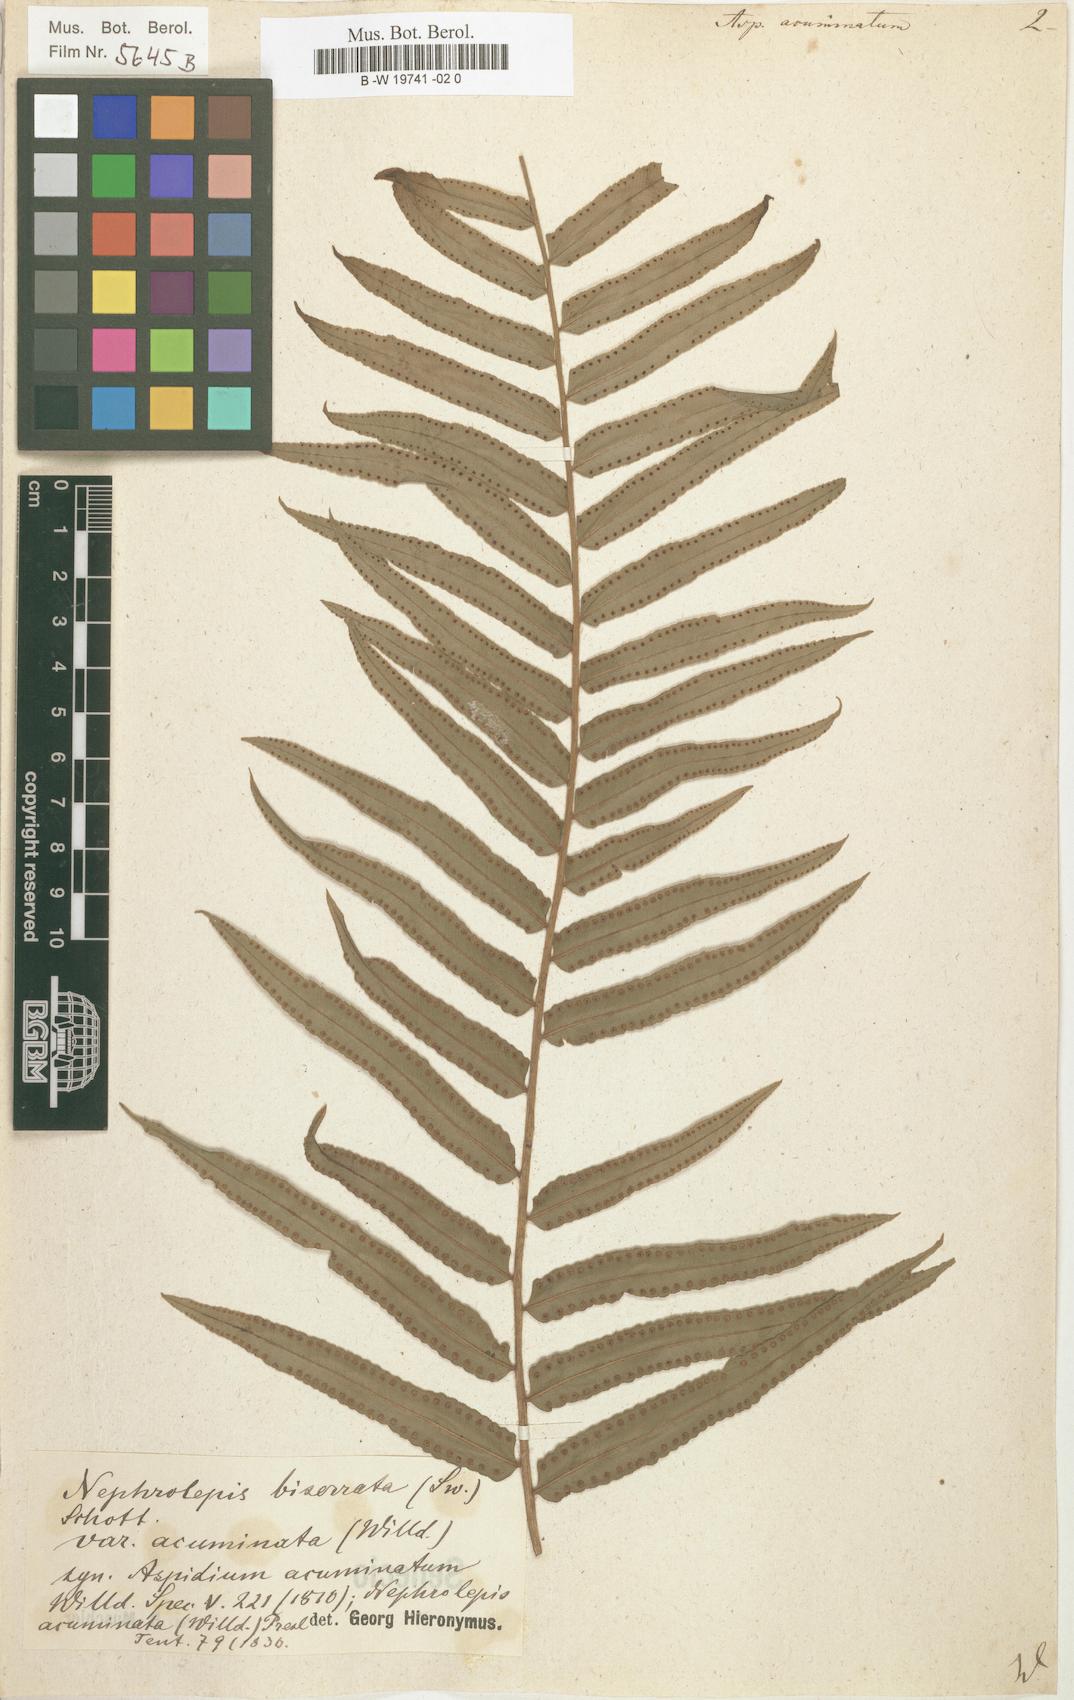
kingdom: Plantae
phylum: Tracheophyta
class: Polypodiopsida
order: Polypodiales
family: Nephrolepidaceae
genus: Nephrolepis
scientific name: Nephrolepis biserrata
